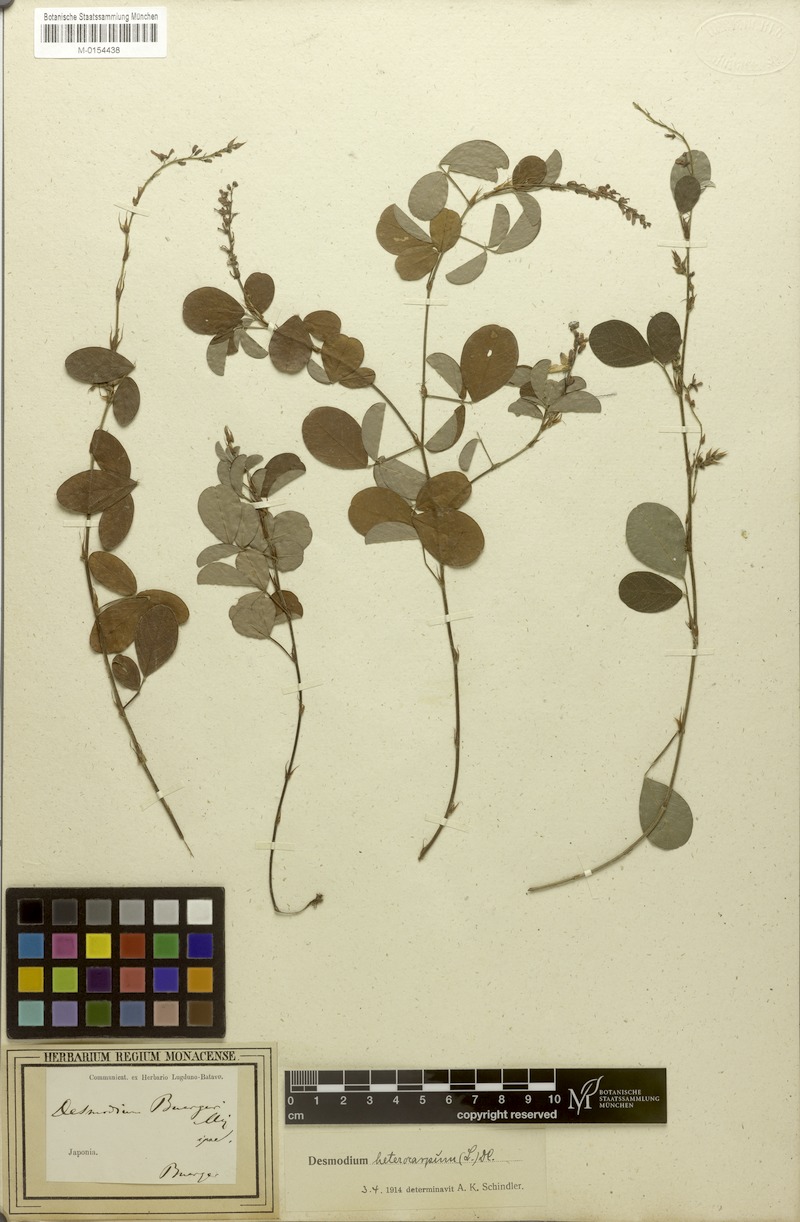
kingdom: Plantae
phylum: Tracheophyta
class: Magnoliopsida
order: Fabales
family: Fabaceae
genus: Grona
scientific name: Grona heterocarpos
